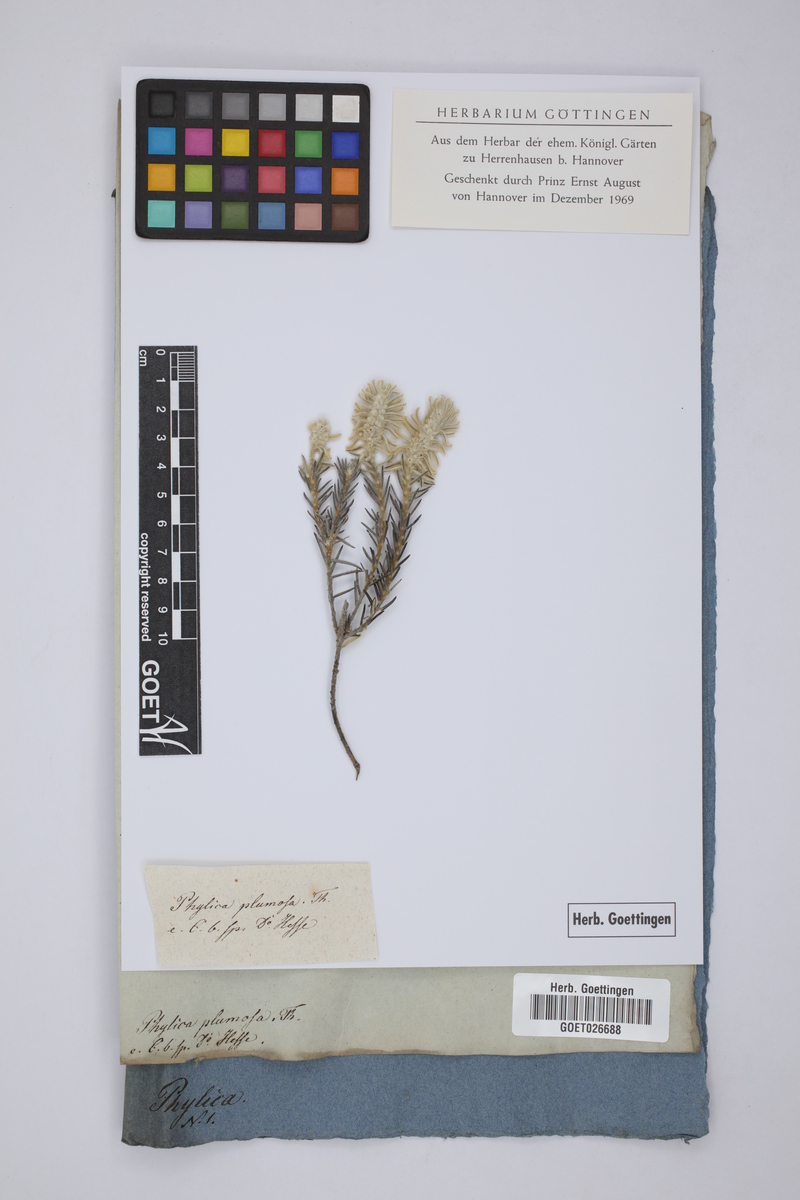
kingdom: Plantae
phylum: Tracheophyta
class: Magnoliopsida
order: Rosales
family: Rhamnaceae
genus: Phylica
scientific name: Phylica plumosa
